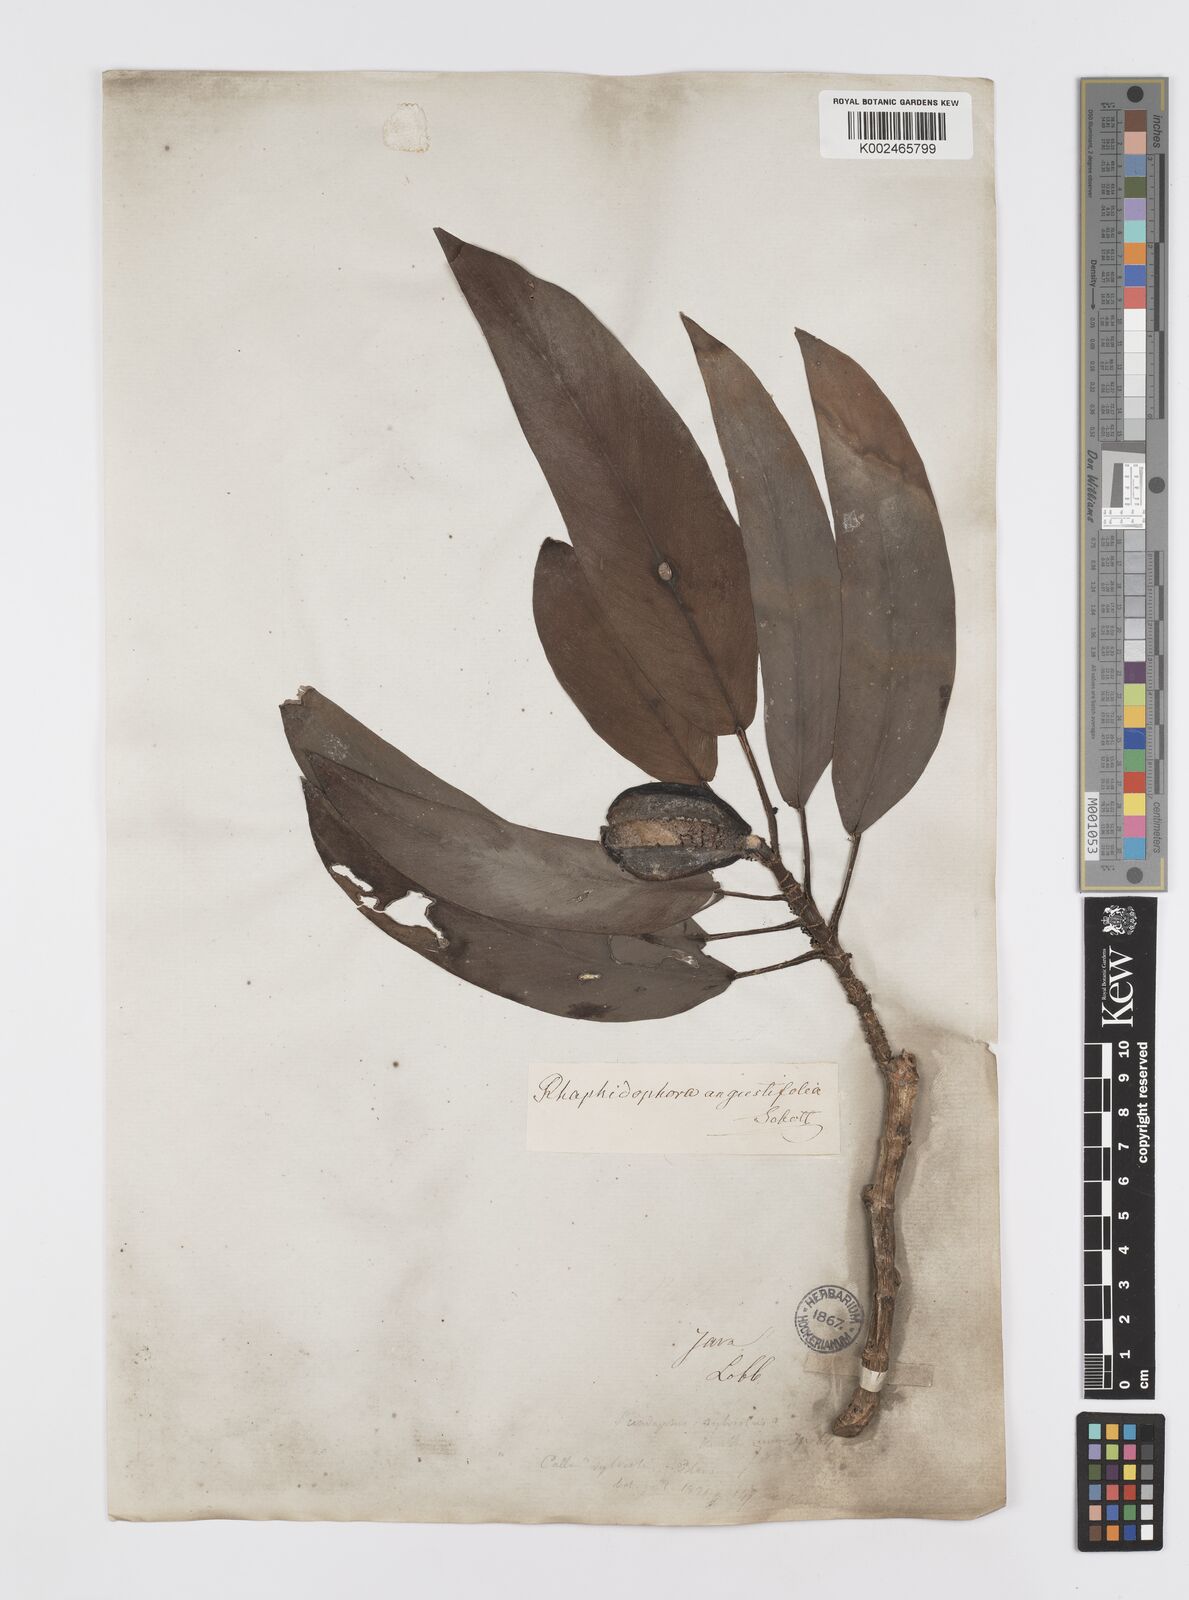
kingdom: Plantae
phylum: Tracheophyta
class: Liliopsida
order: Alismatales
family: Araceae
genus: Rhaphidophora
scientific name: Rhaphidophora sylvestris
